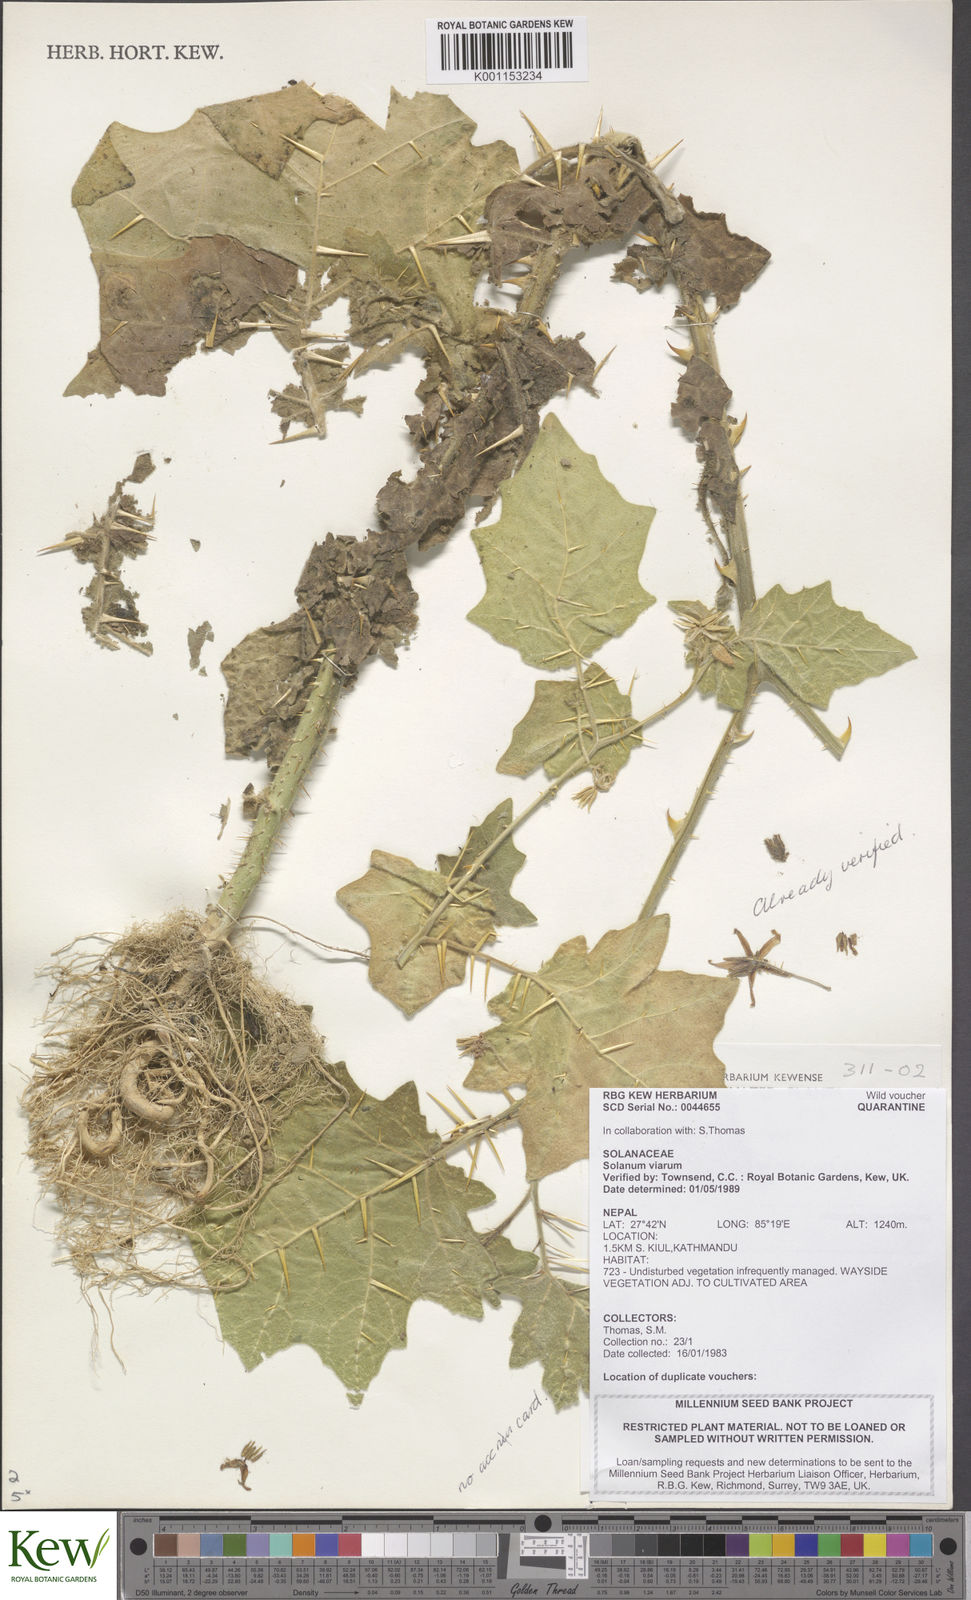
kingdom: Plantae
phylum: Tracheophyta
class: Magnoliopsida
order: Solanales
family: Solanaceae
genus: Solanum
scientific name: Solanum viarum
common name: Tropical soda apple
